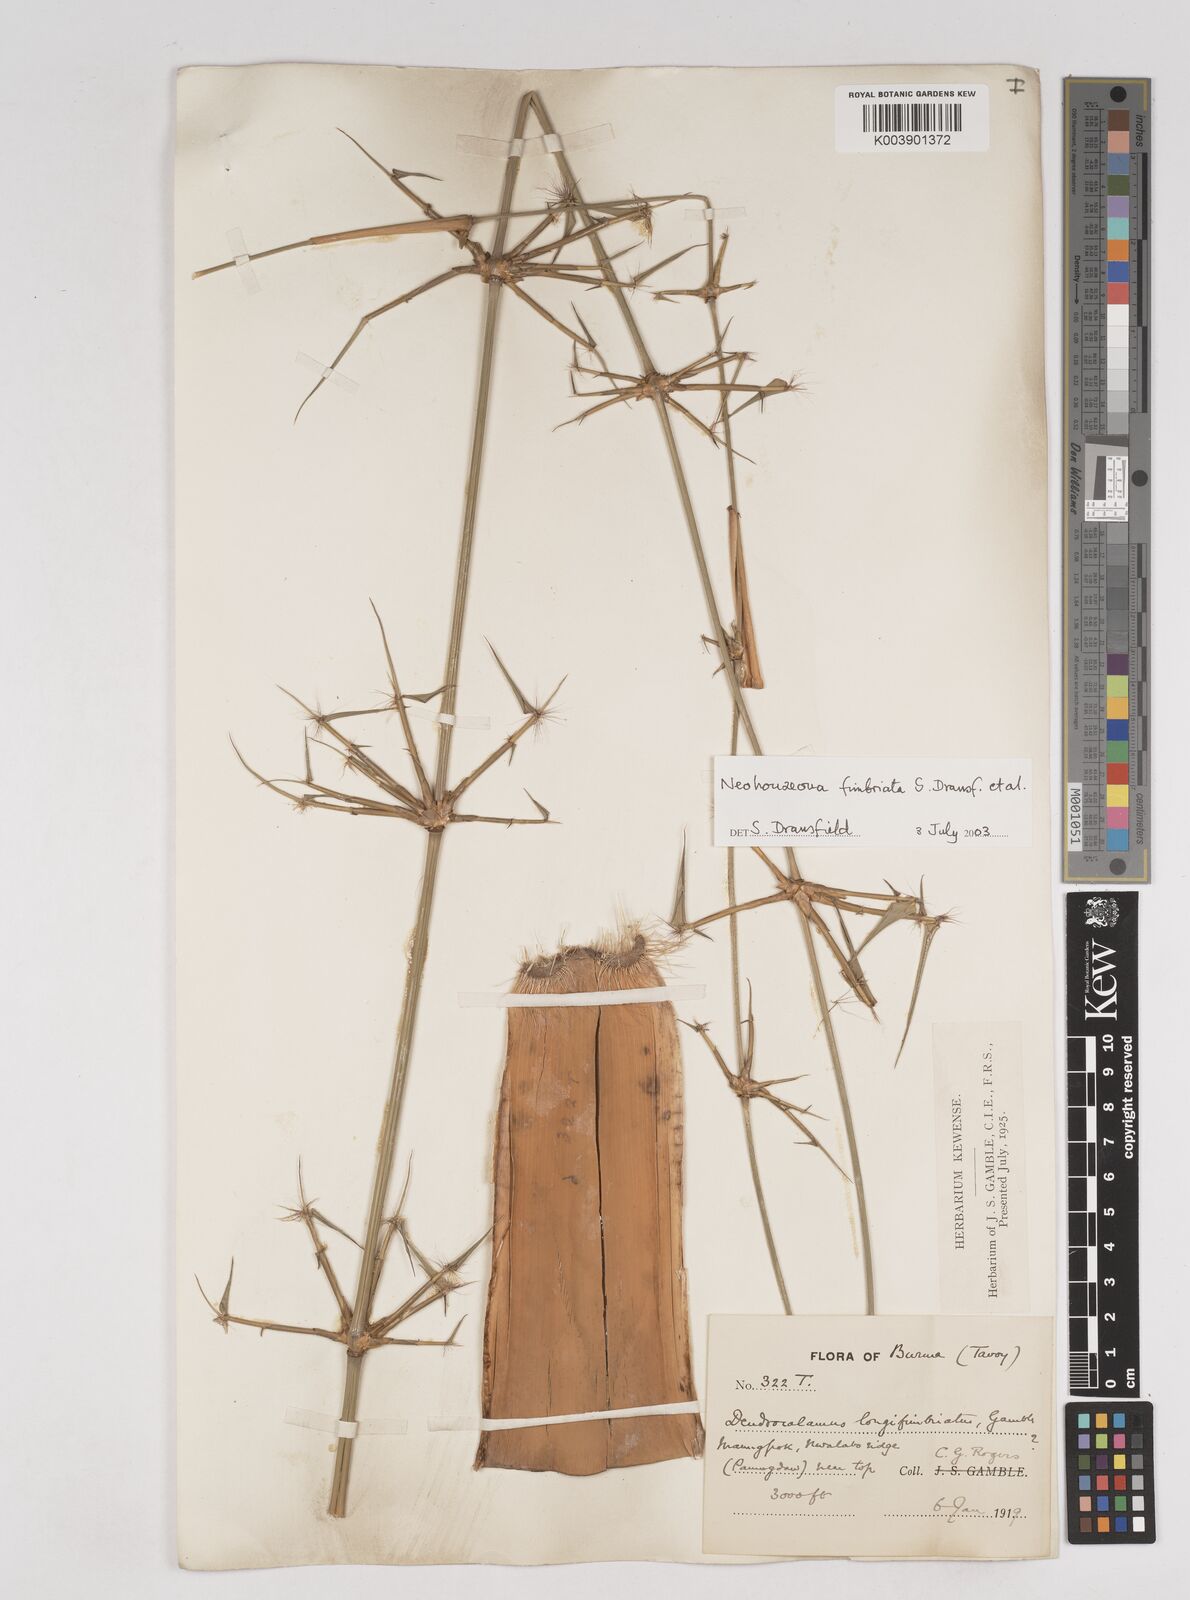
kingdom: Plantae
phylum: Tracheophyta
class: Liliopsida
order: Poales
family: Poaceae
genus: Schizostachyum
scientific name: Schizostachyum
